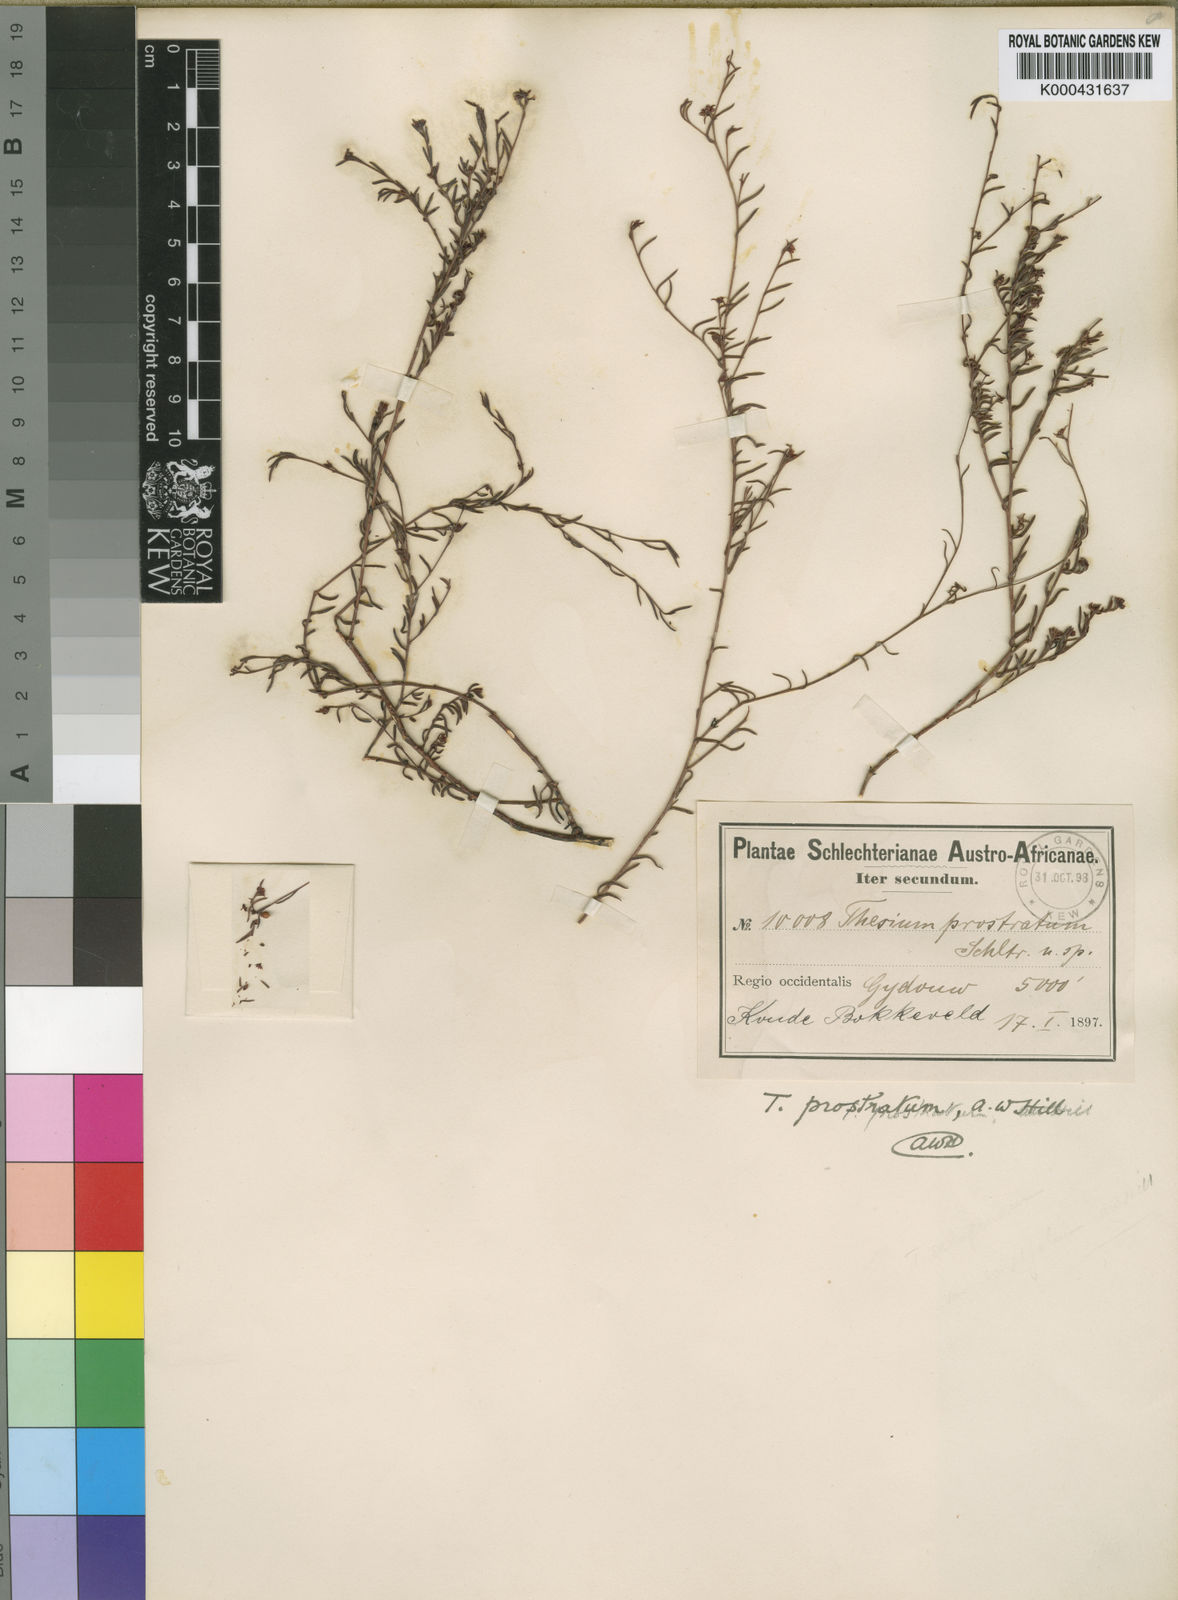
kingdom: Plantae
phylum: Tracheophyta
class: Magnoliopsida
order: Santalales
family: Thesiaceae
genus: Thesium
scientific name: Thesium prostratum
